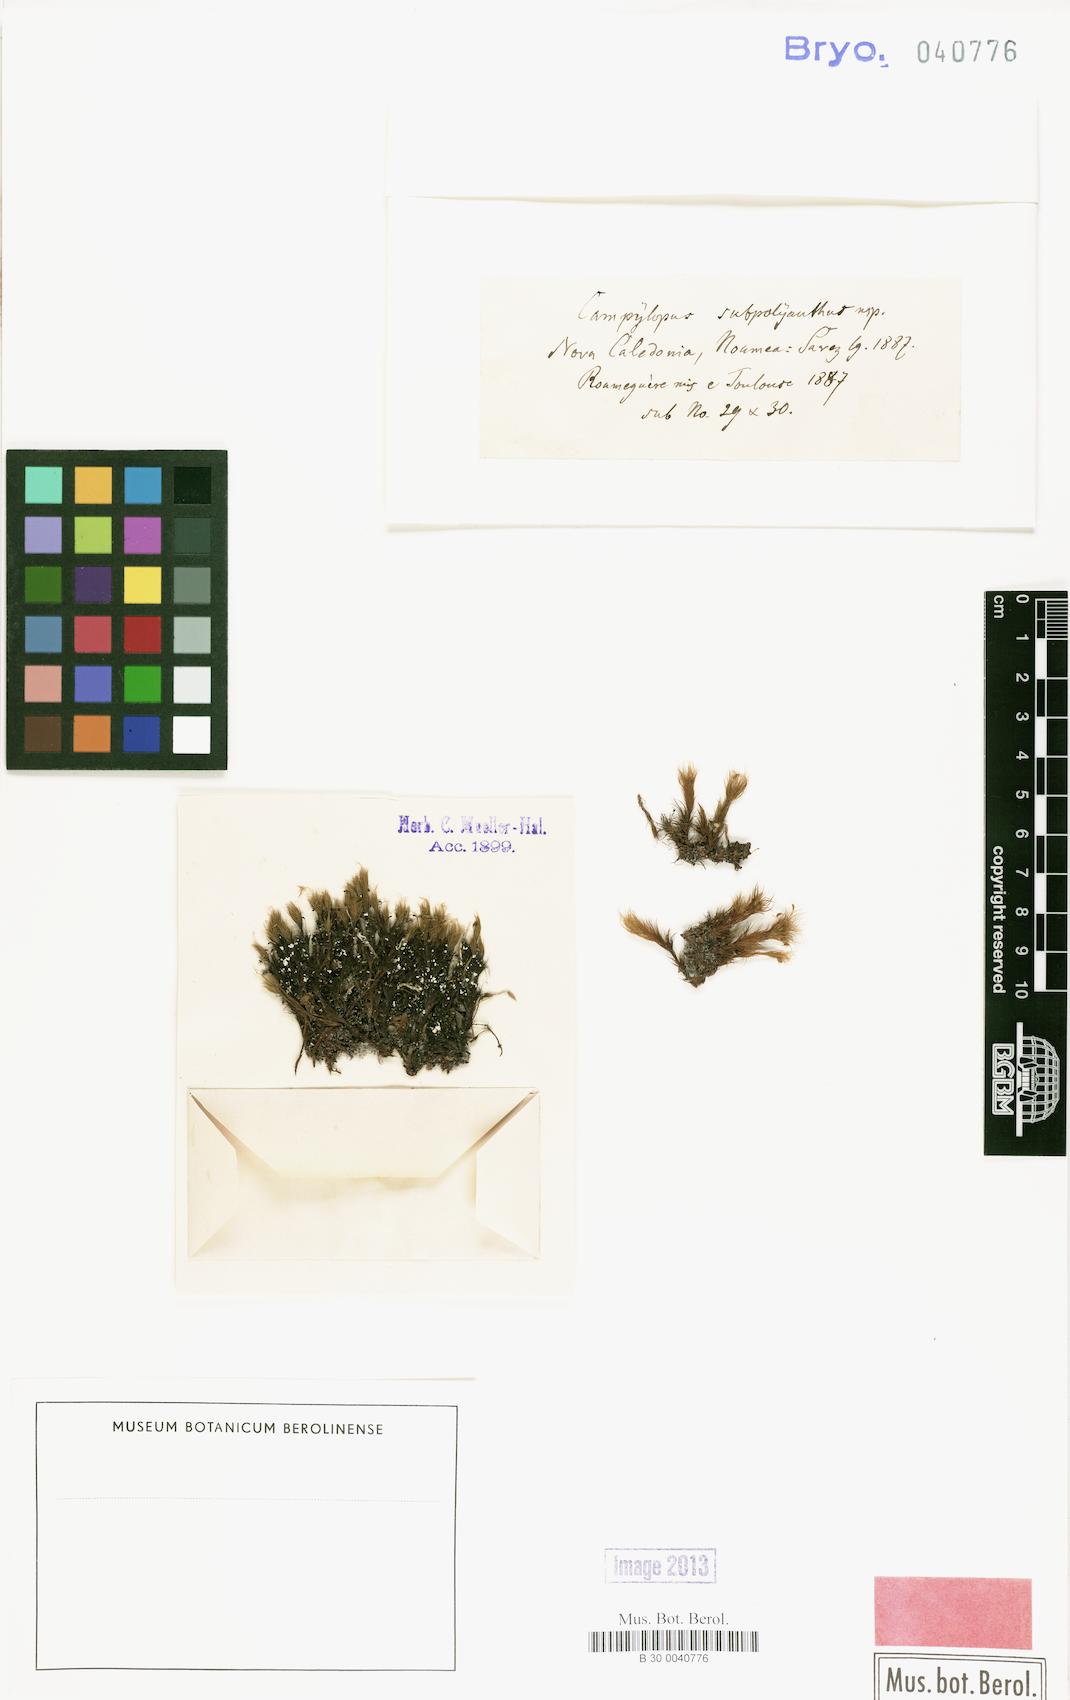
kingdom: Plantae
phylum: Bryophyta
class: Bryopsida
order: Dicranales
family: Leucobryaceae
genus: Campylopus
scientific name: Campylopus subpolyanthus
